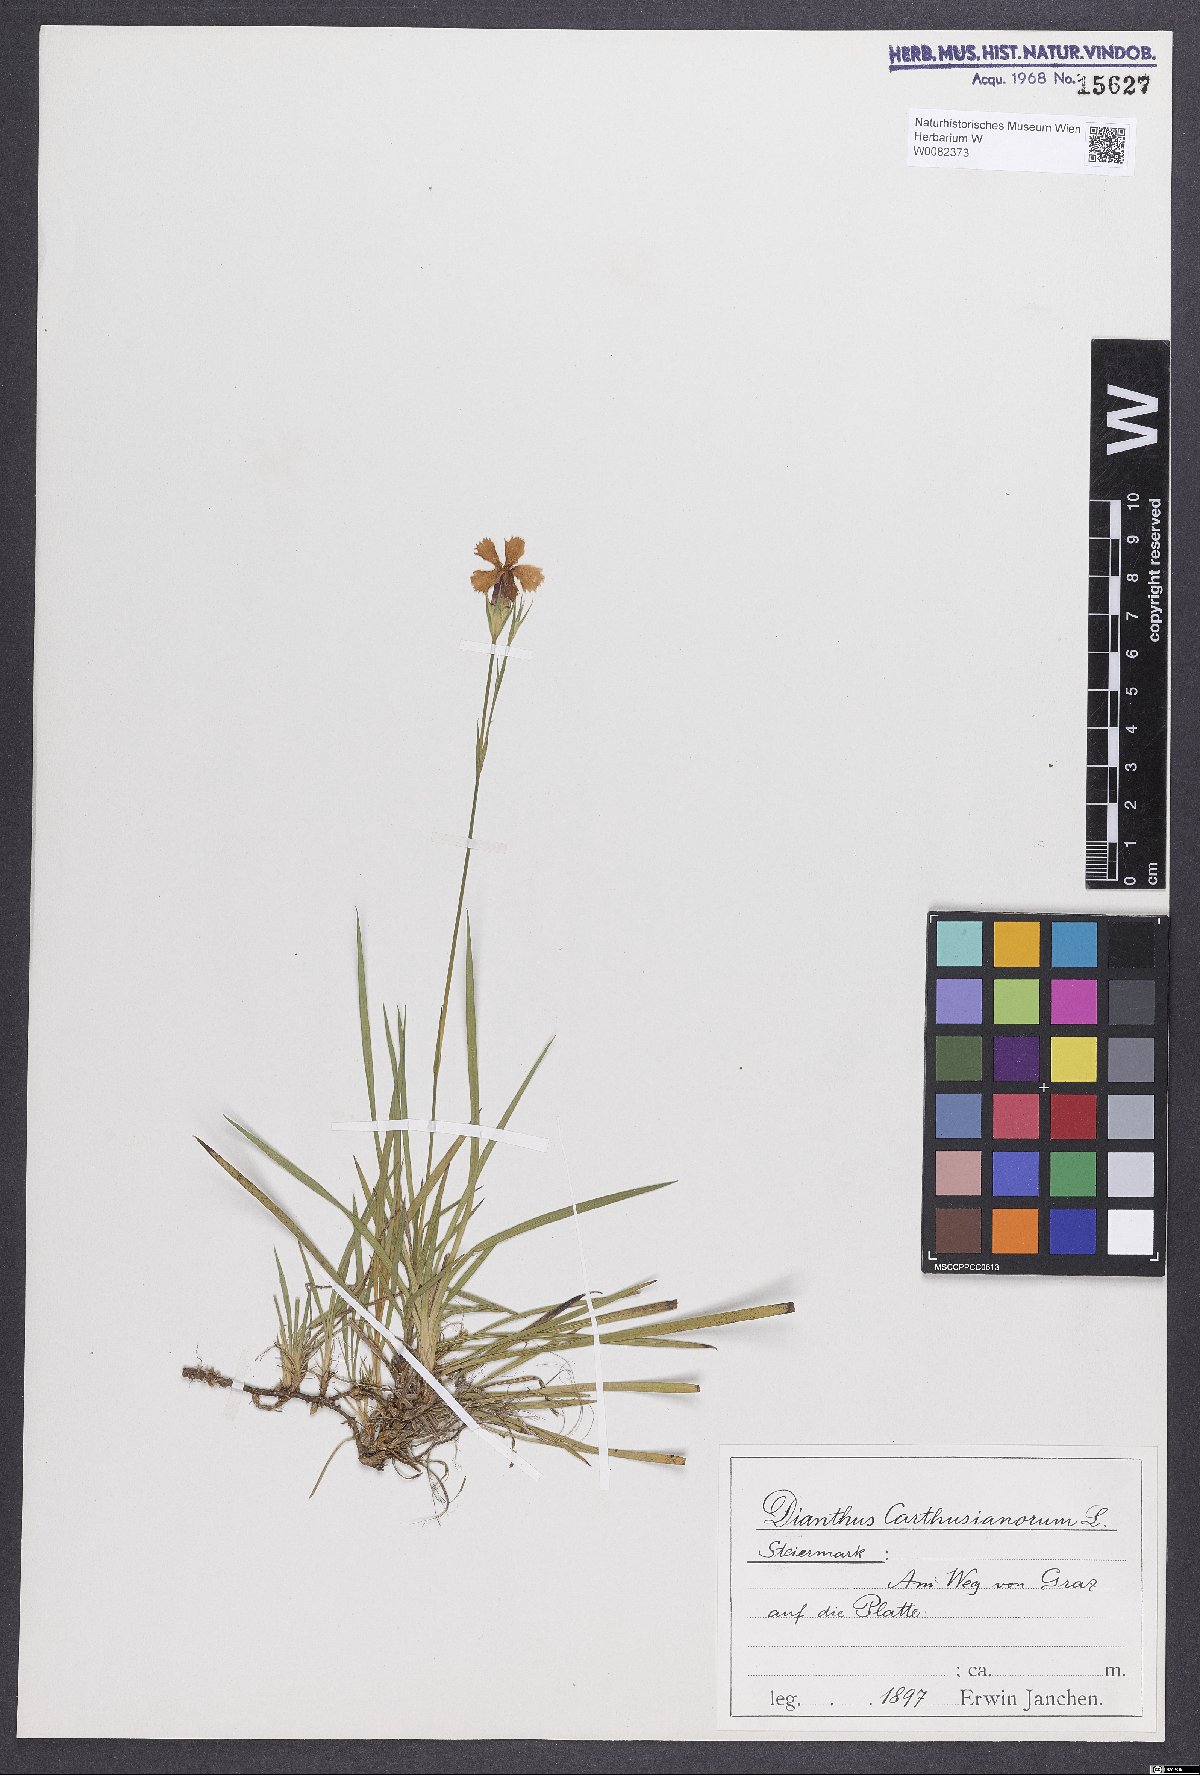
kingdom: Plantae
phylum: Tracheophyta
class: Magnoliopsida
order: Caryophyllales
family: Caryophyllaceae
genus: Dianthus
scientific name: Dianthus carthusianorum
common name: Carthusian pink
